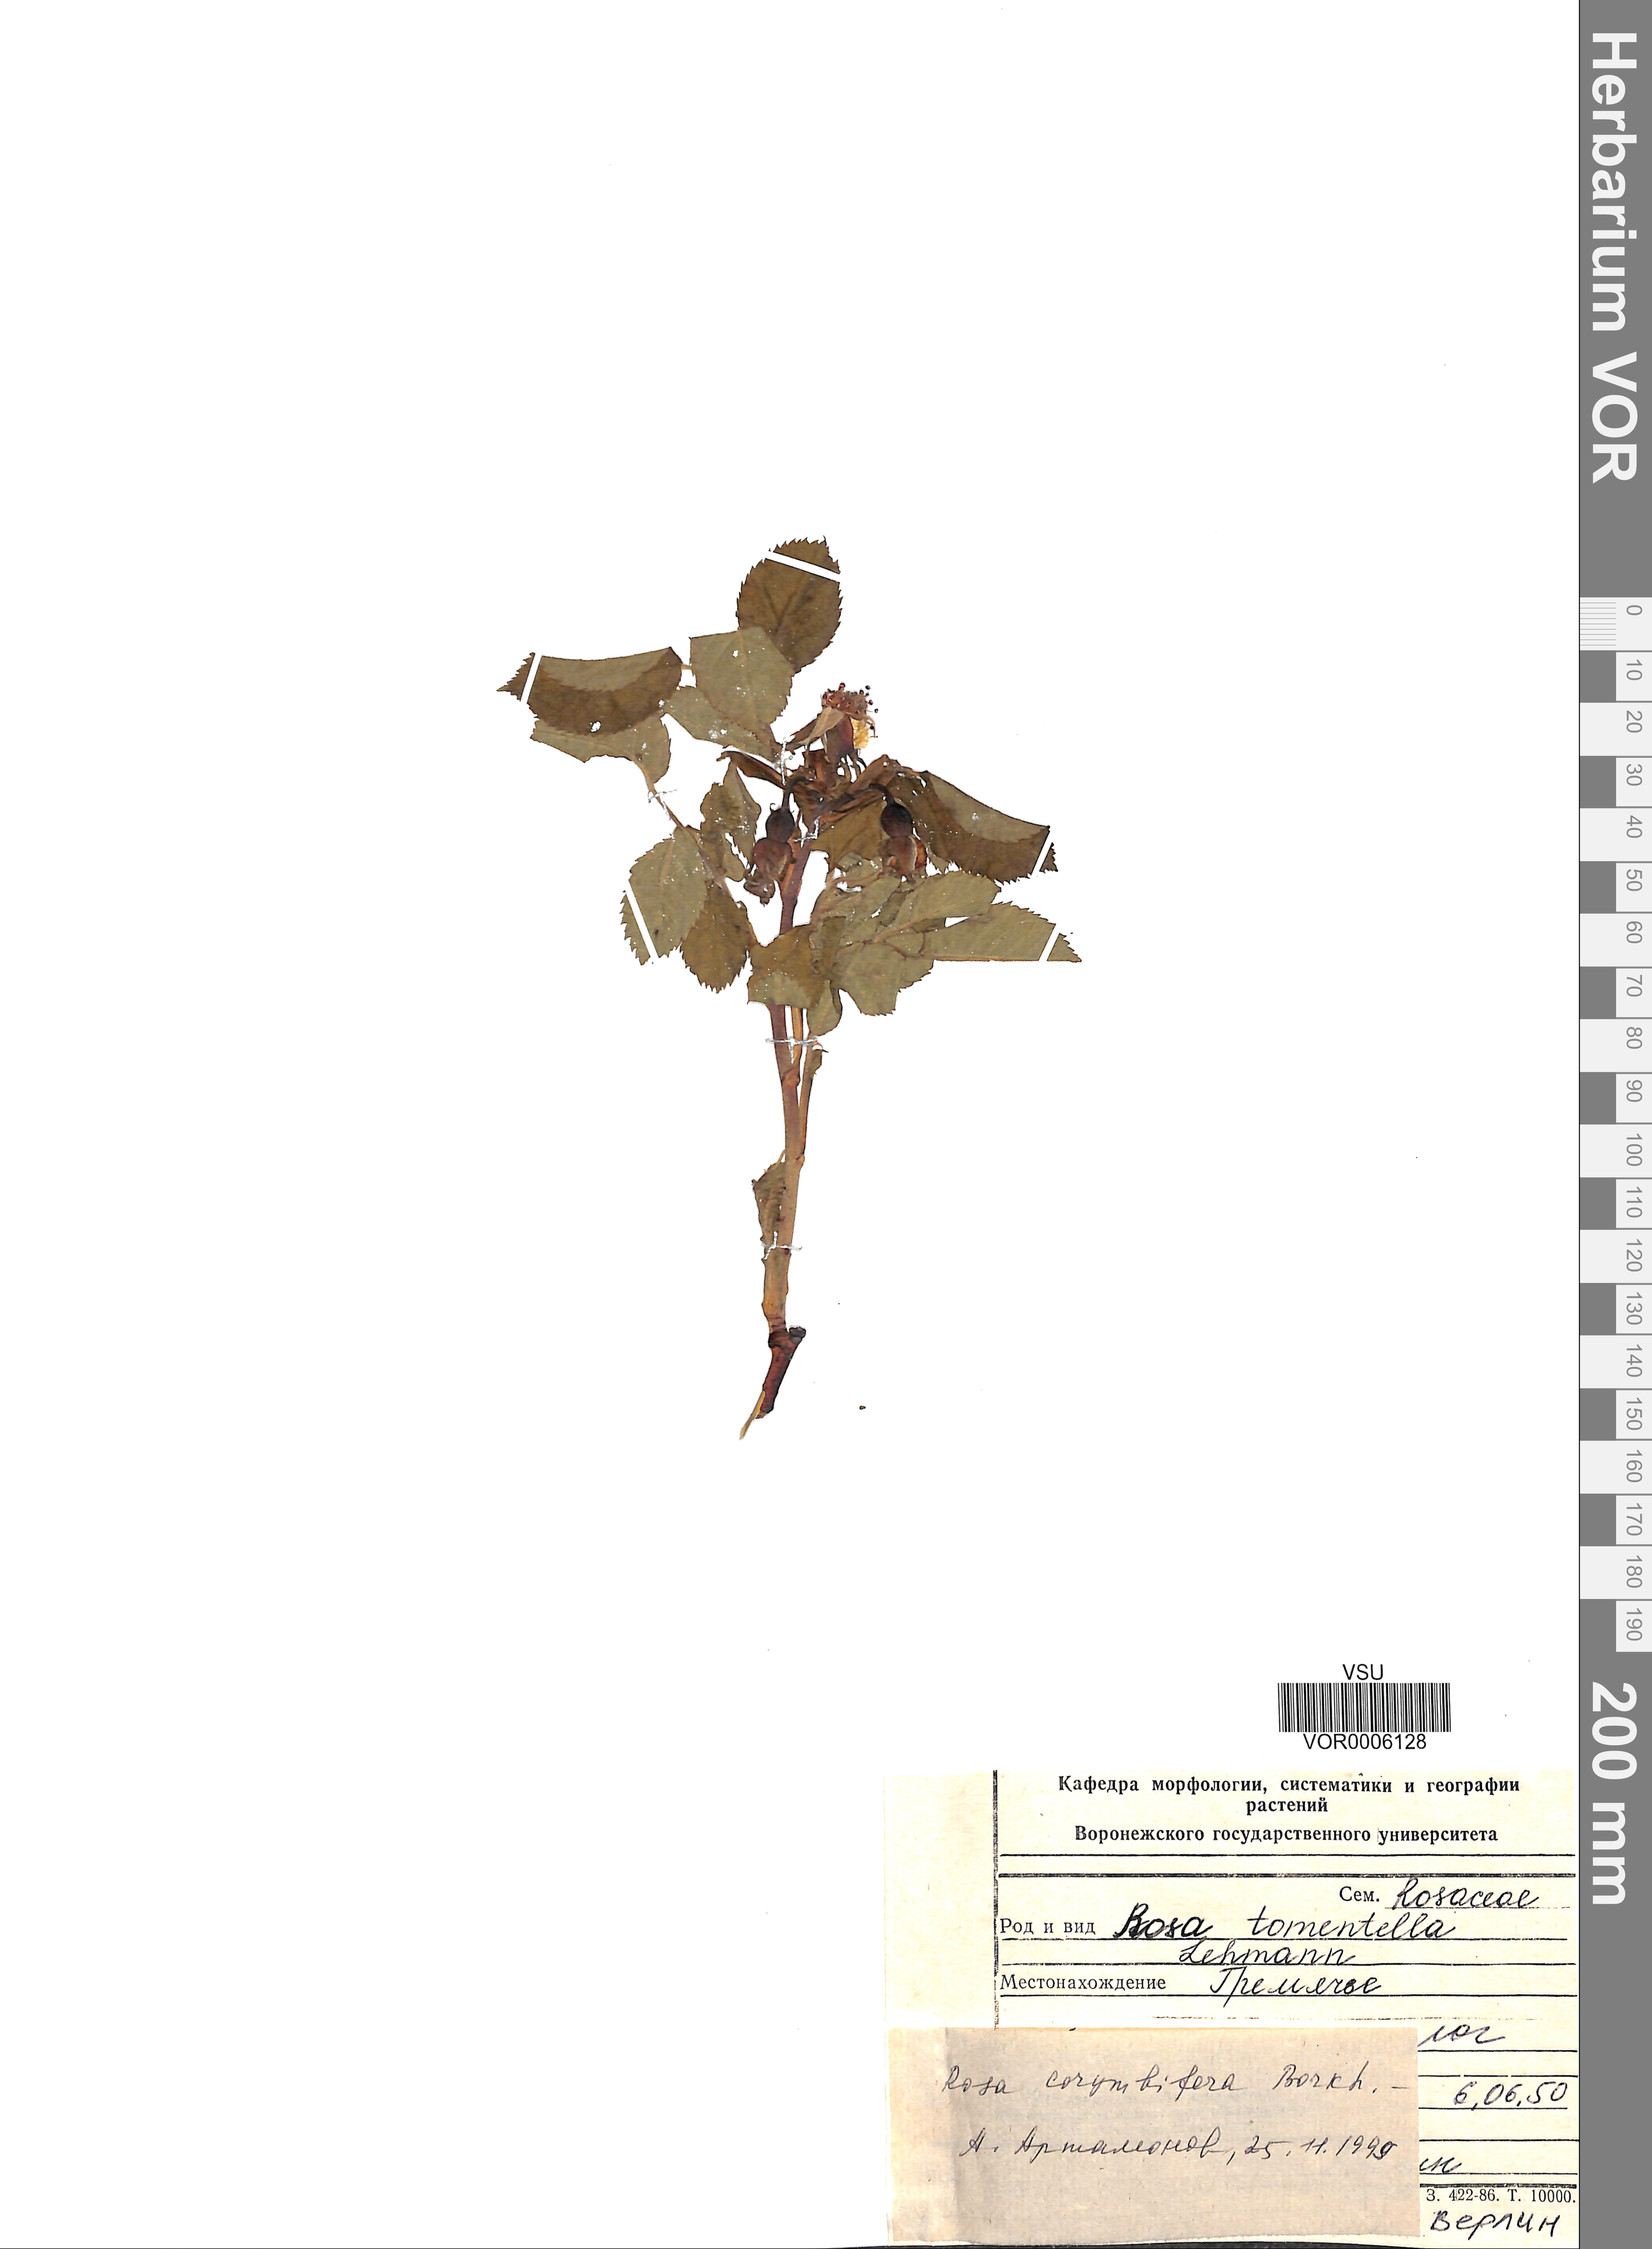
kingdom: Plantae
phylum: Tracheophyta
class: Magnoliopsida
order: Rosales
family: Rosaceae
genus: Rosa
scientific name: Rosa corymbifera
